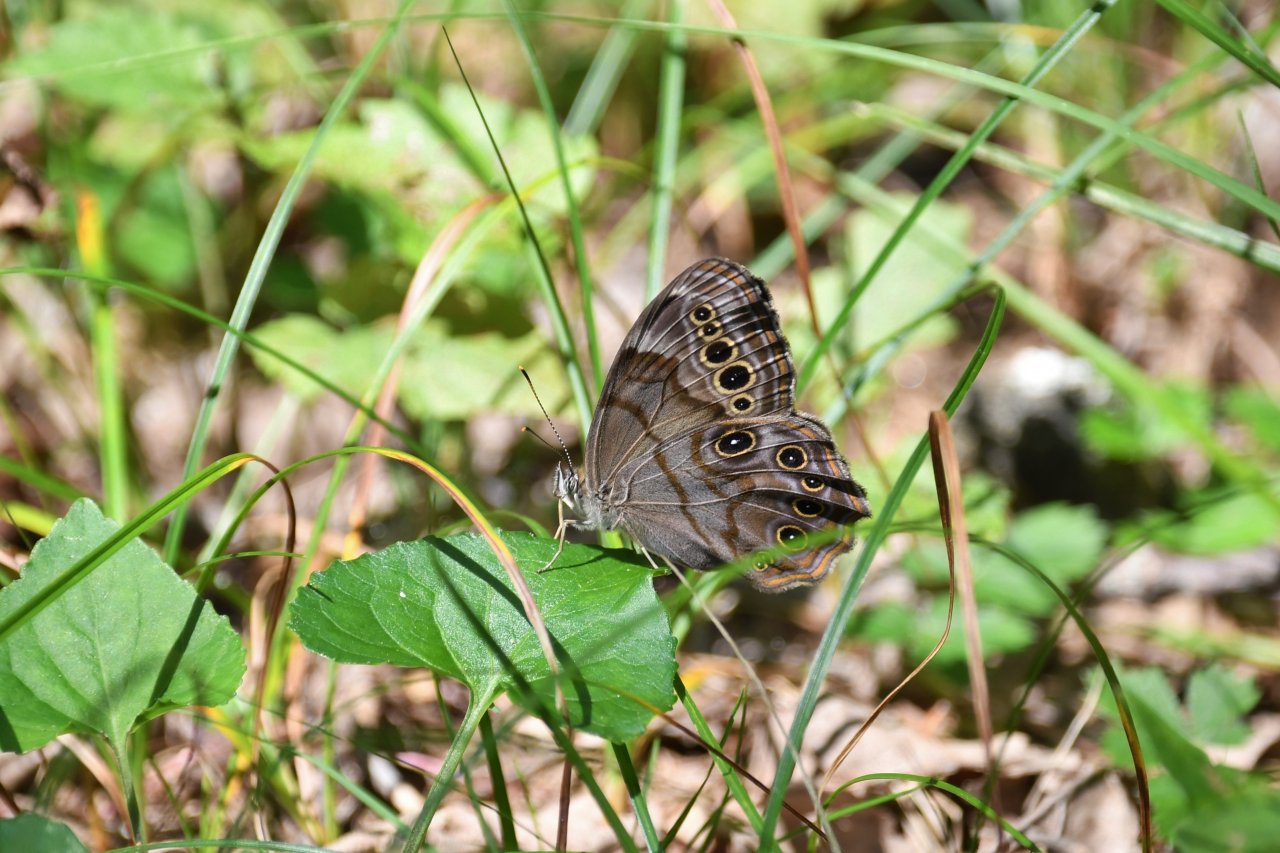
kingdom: Animalia
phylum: Arthropoda
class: Insecta
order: Lepidoptera
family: Nymphalidae
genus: Lethe
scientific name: Lethe anthedon
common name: Northern Pearly-Eye
